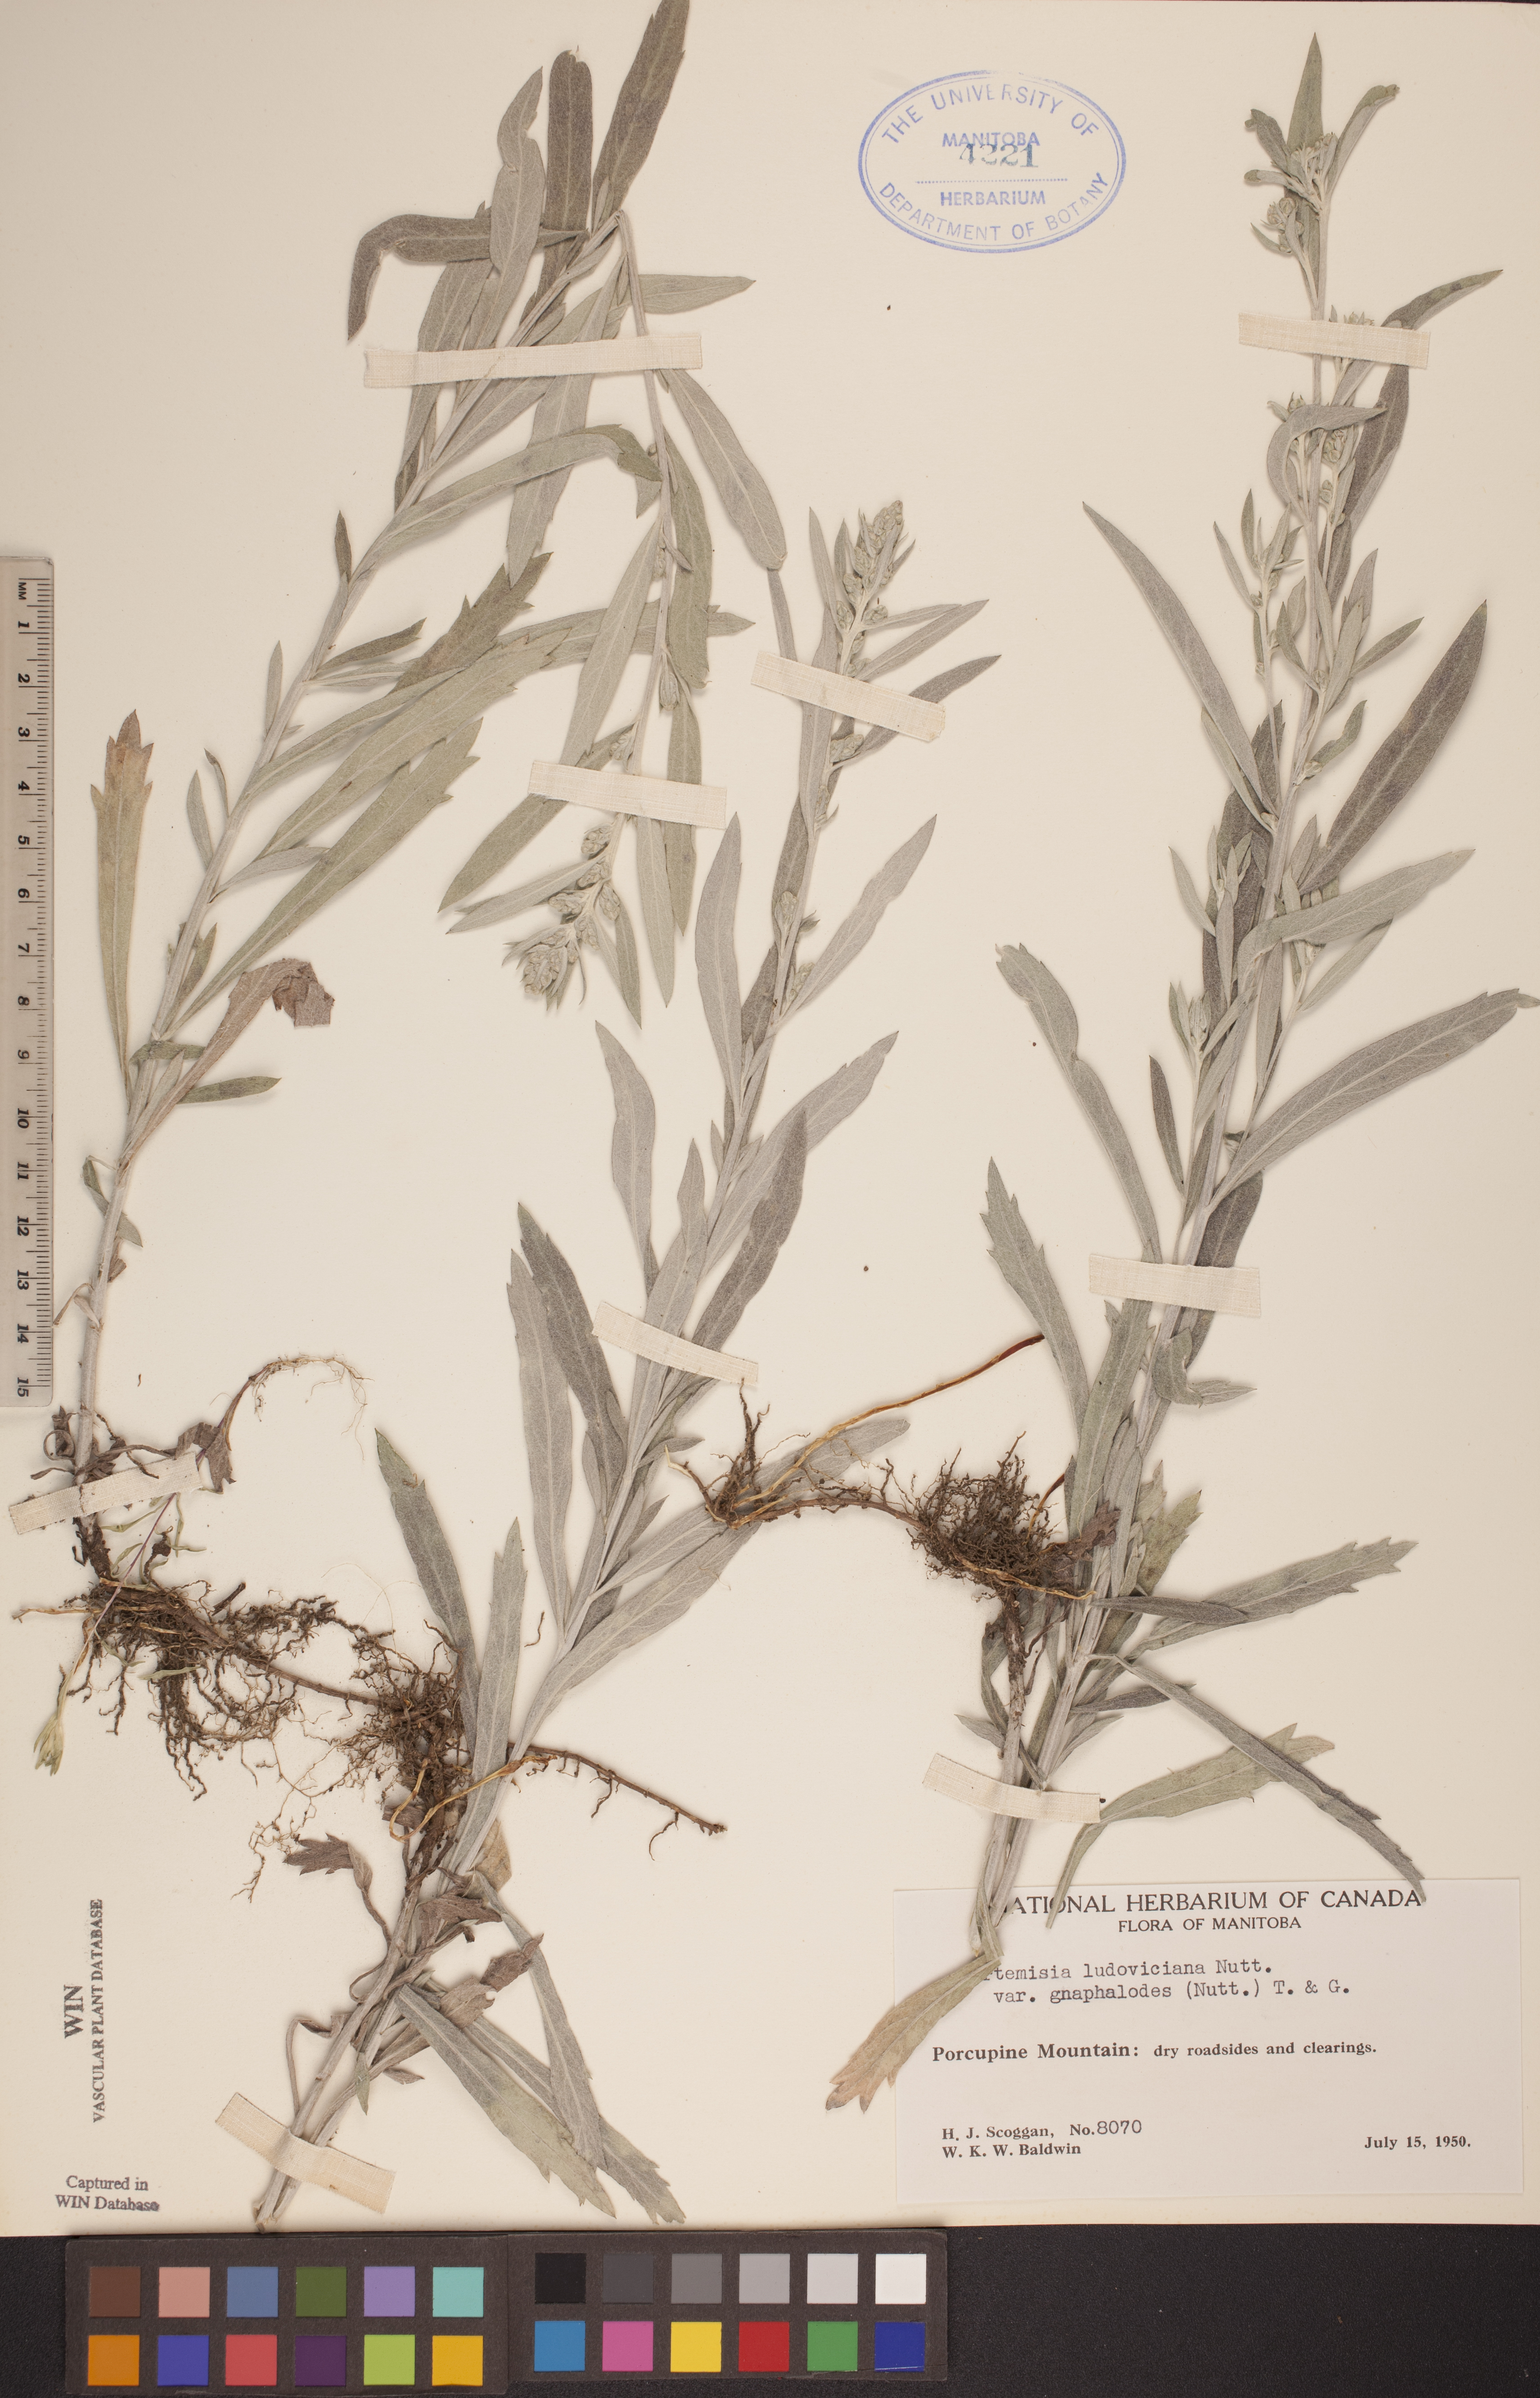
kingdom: Plantae
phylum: Tracheophyta
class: Magnoliopsida
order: Asterales
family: Asteraceae
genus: Artemisia
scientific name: Artemisia ludoviciana
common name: Western mugwort
